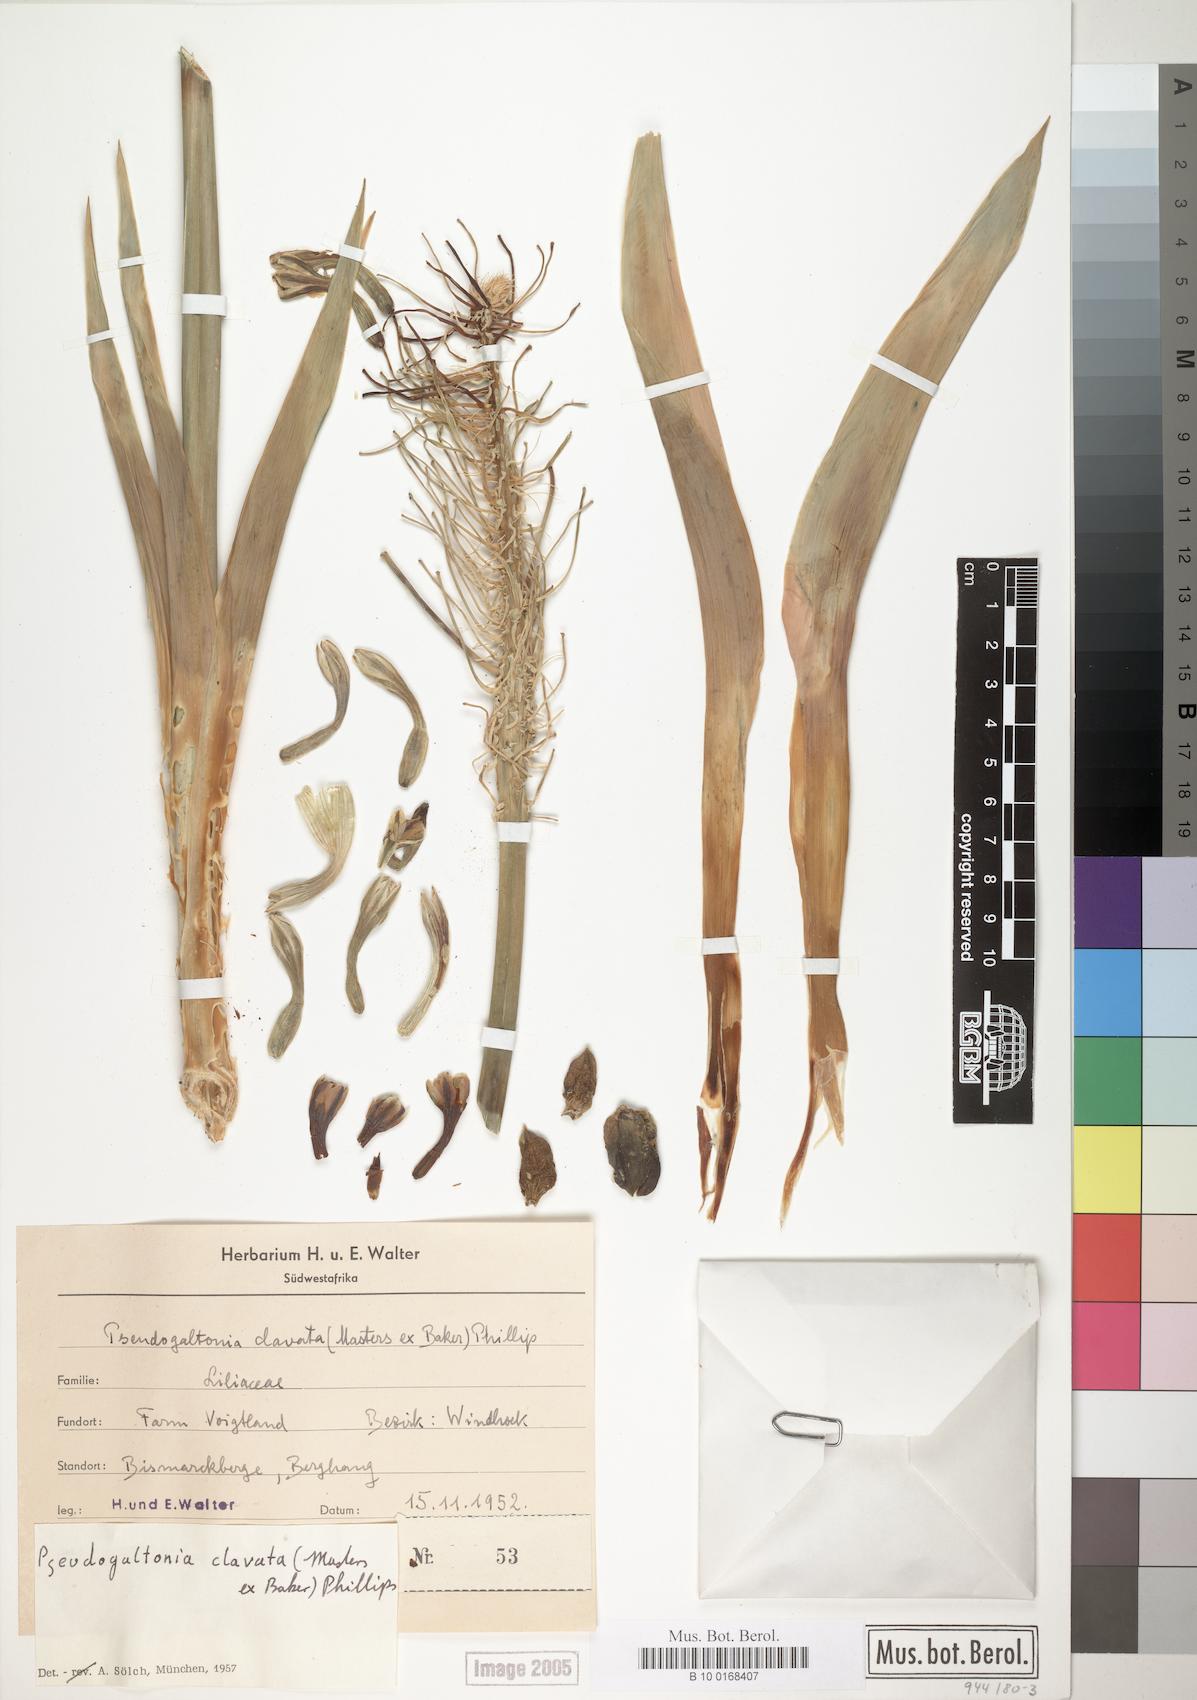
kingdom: Plantae
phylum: Tracheophyta
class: Liliopsida
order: Asparagales
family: Asparagaceae
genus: Pseudogaltonia
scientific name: Pseudogaltonia clavata
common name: South west african slangkop
